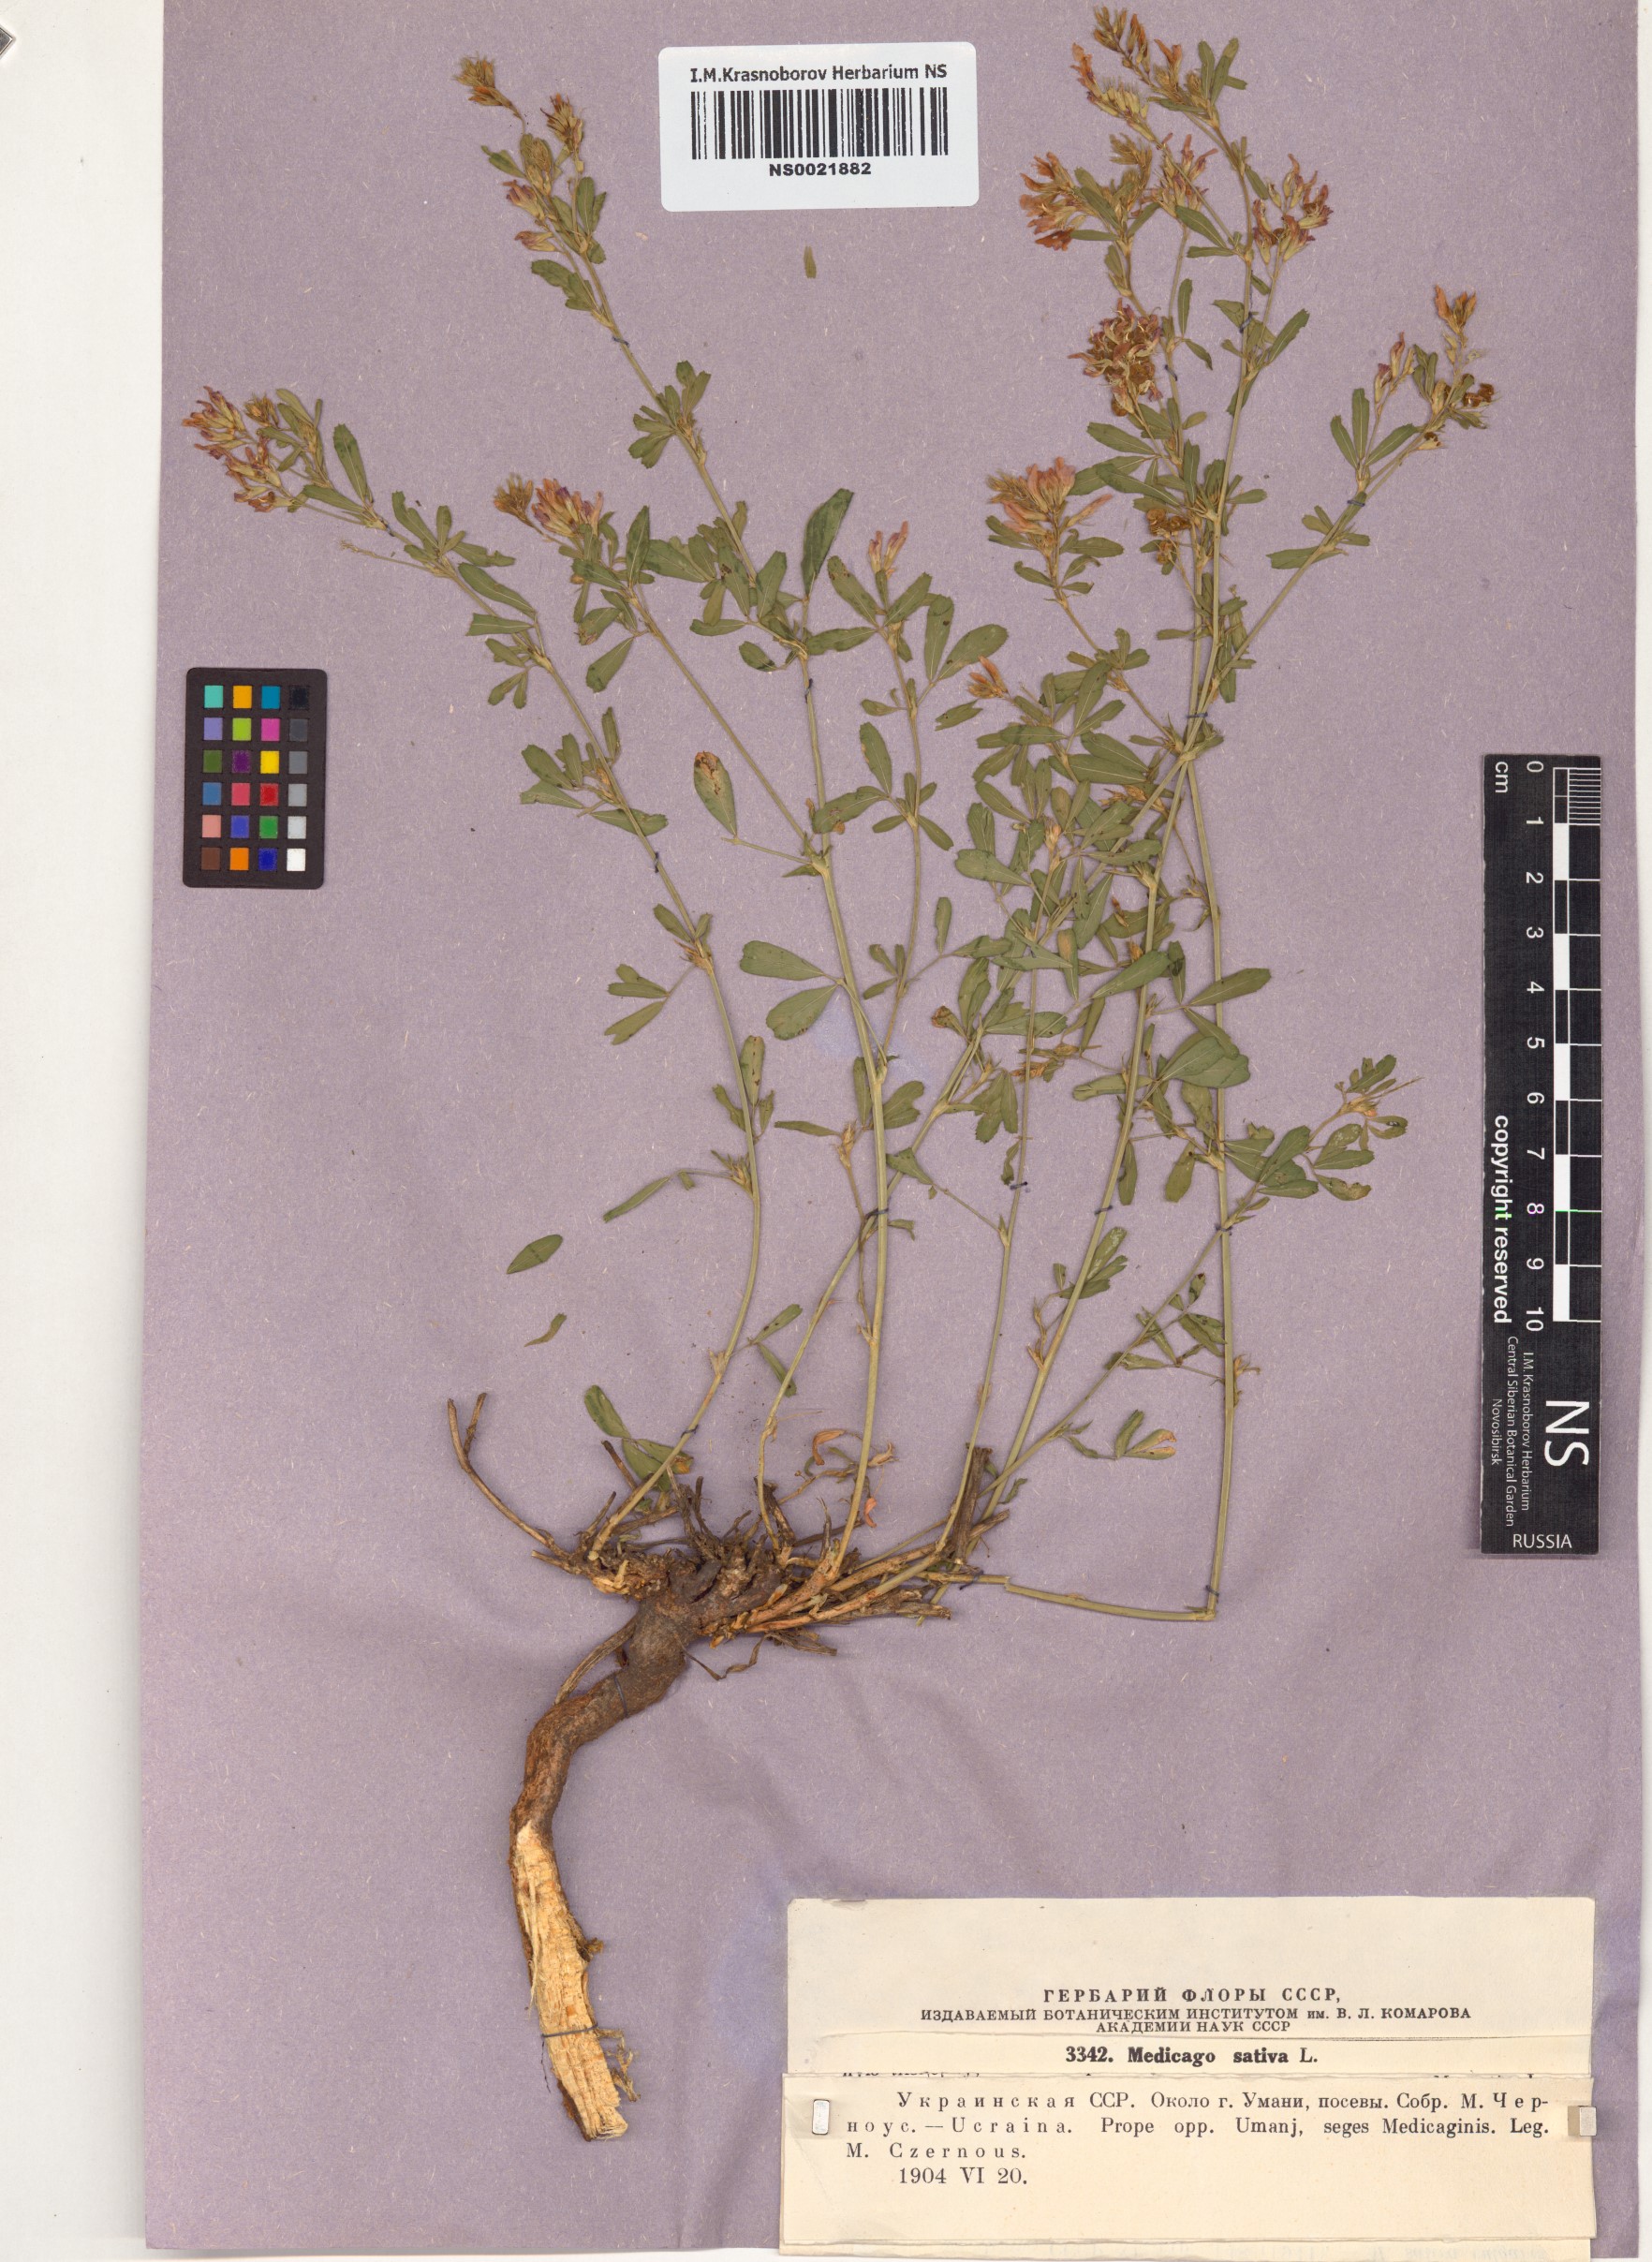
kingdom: Plantae
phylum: Tracheophyta
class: Magnoliopsida
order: Fabales
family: Fabaceae
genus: Medicago
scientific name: Medicago sativa
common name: Alfalfa
